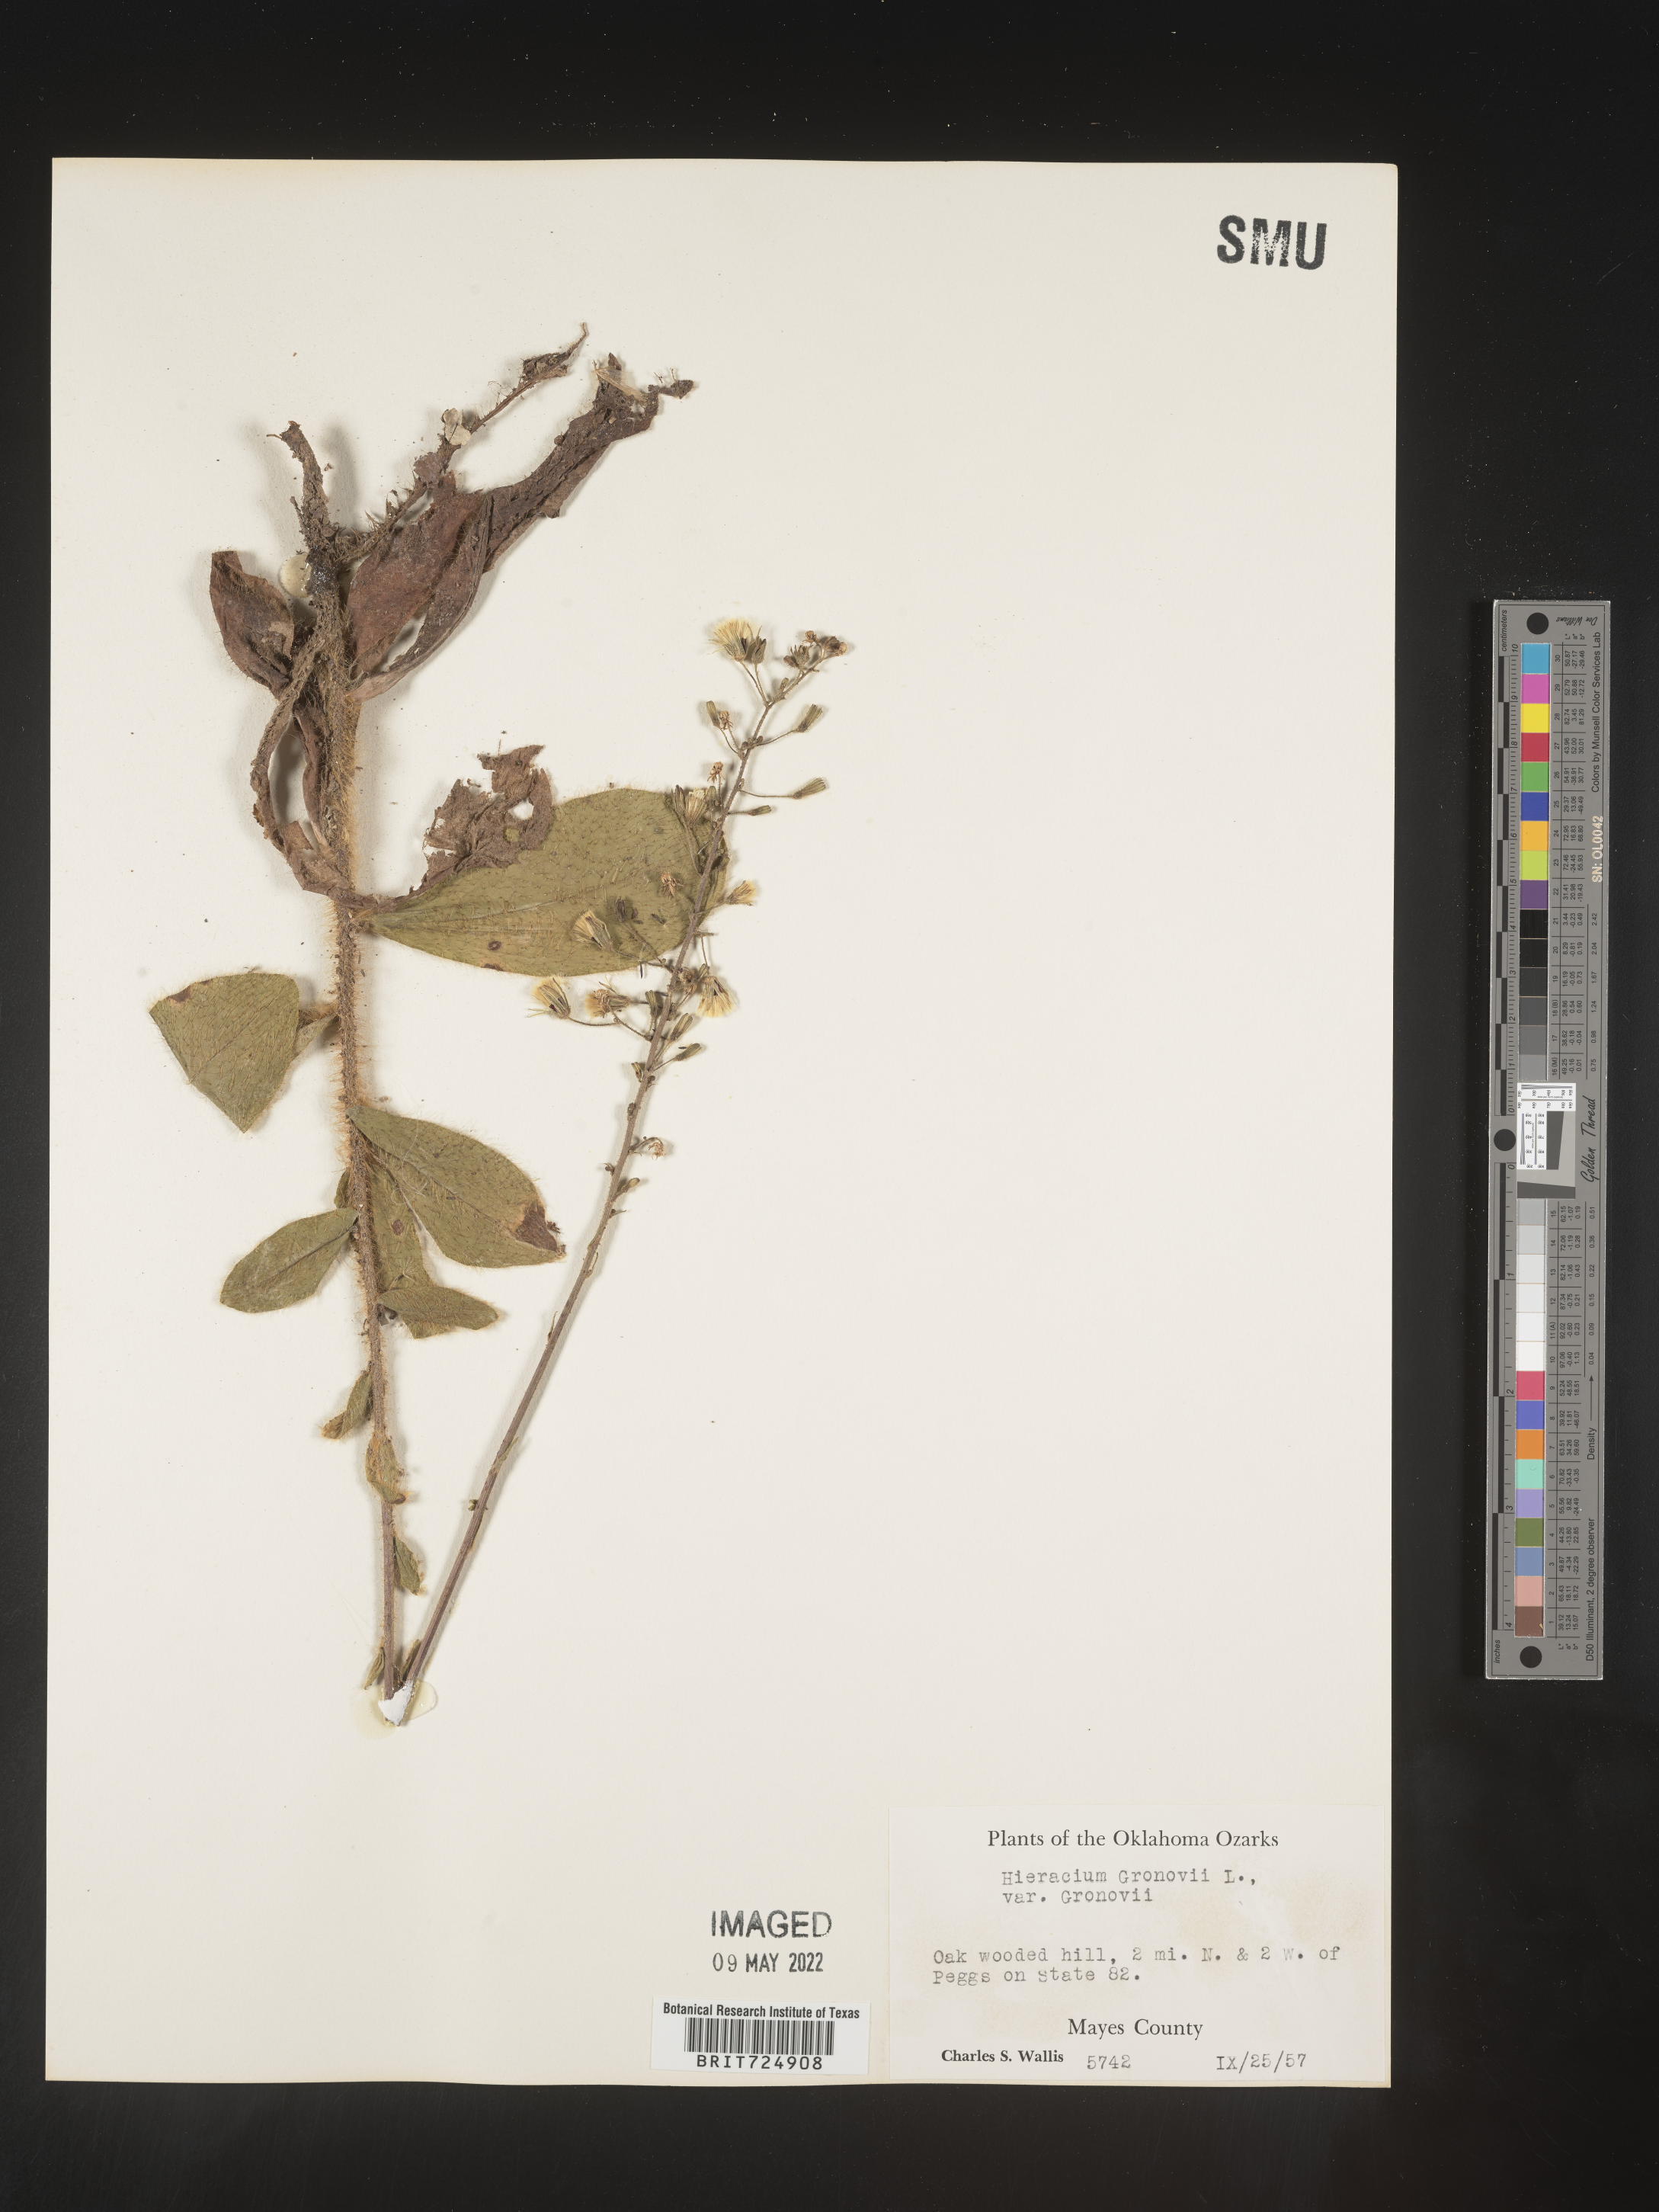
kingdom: Plantae
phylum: Tracheophyta
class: Magnoliopsida
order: Asterales
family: Asteraceae
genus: Hieracium
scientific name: Hieracium gronovii
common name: Beaked hawkweed
